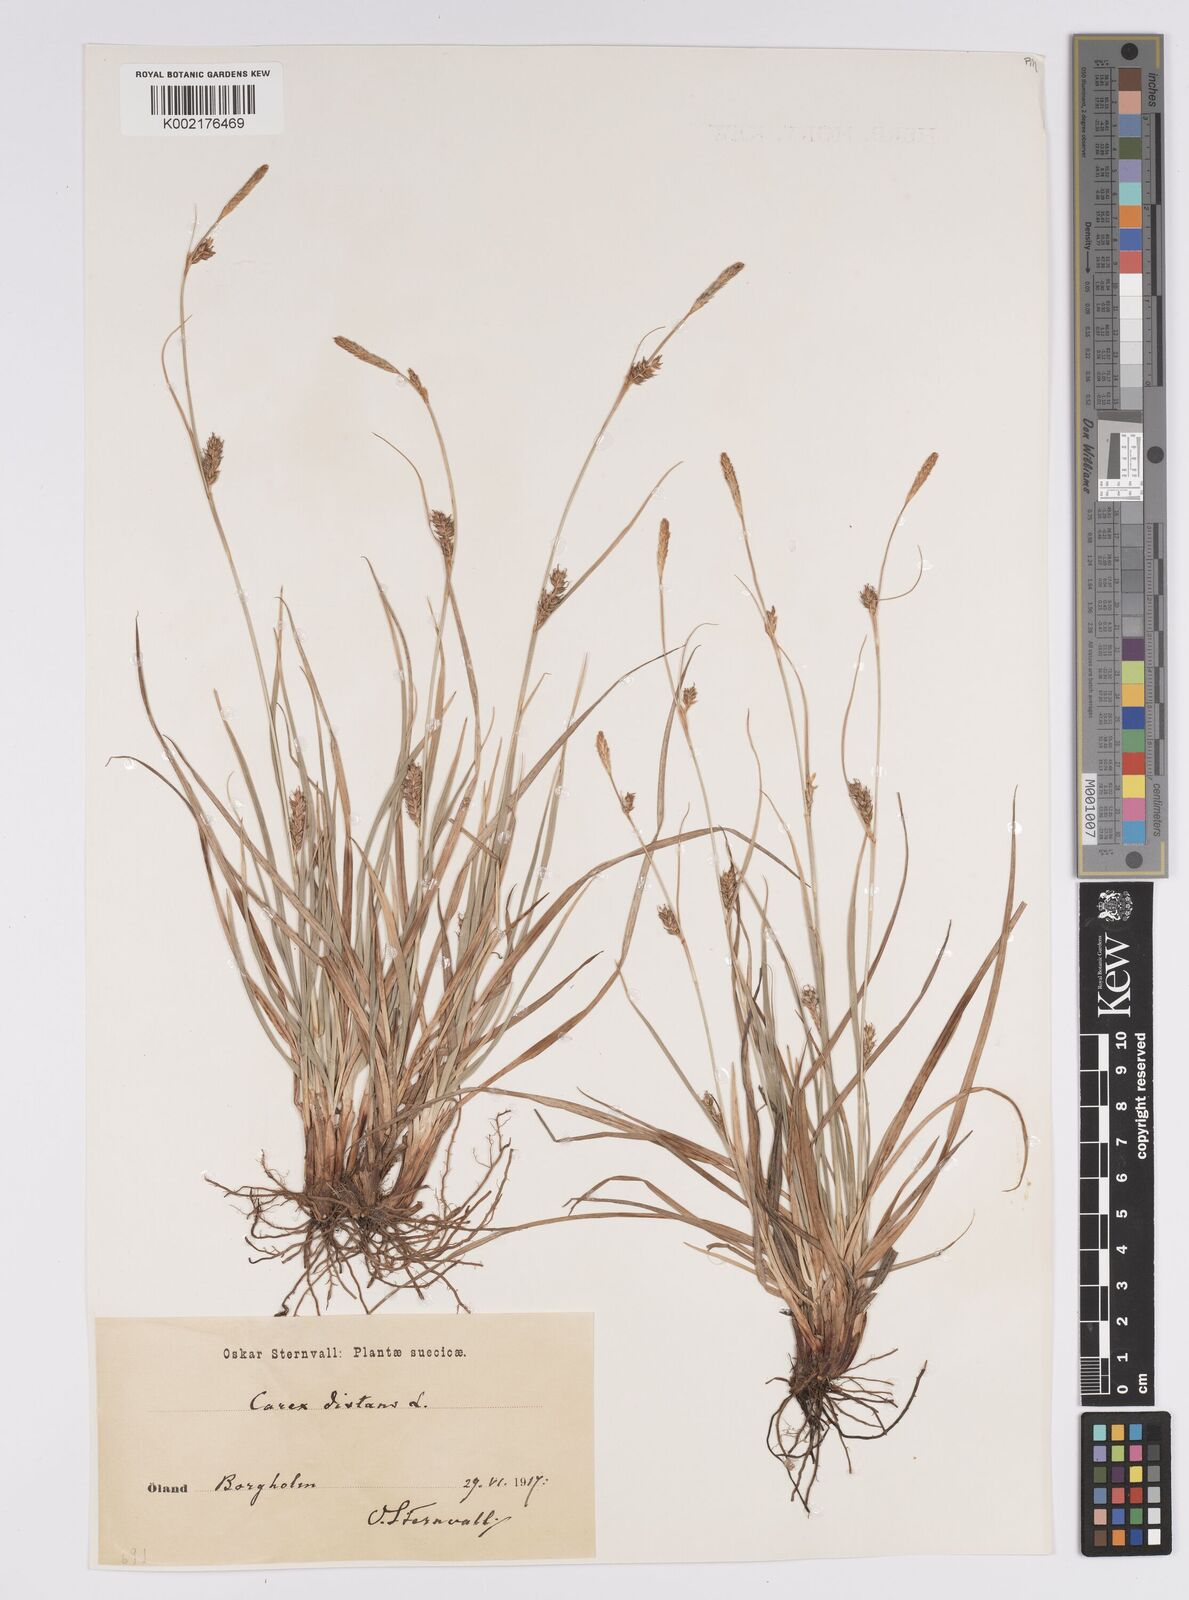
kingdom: Plantae
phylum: Tracheophyta
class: Liliopsida
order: Poales
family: Cyperaceae
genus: Carex
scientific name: Carex distans
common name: Distant sedge
